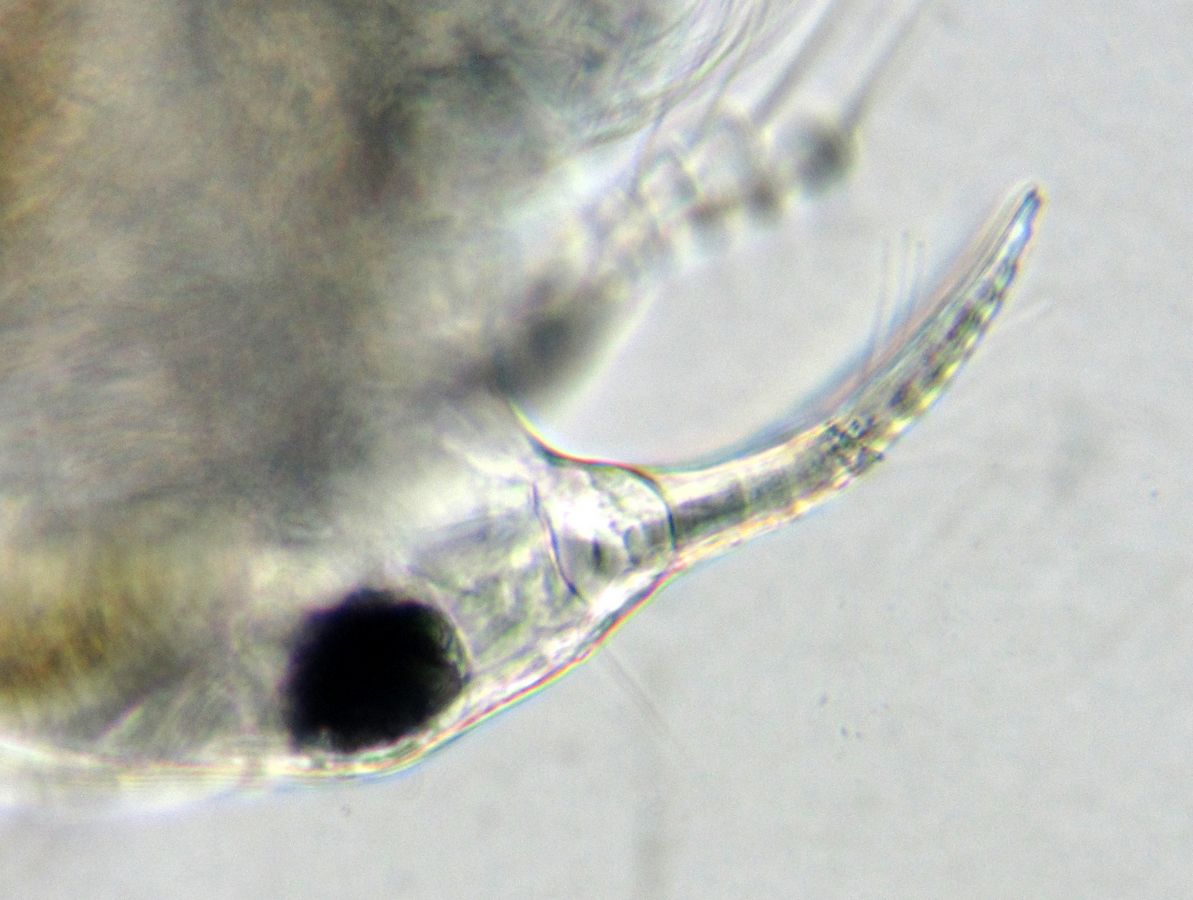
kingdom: Animalia
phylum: Arthropoda
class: Branchiopoda
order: Diplostraca
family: Bosminidae
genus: Bosmina
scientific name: Bosmina longirostris
